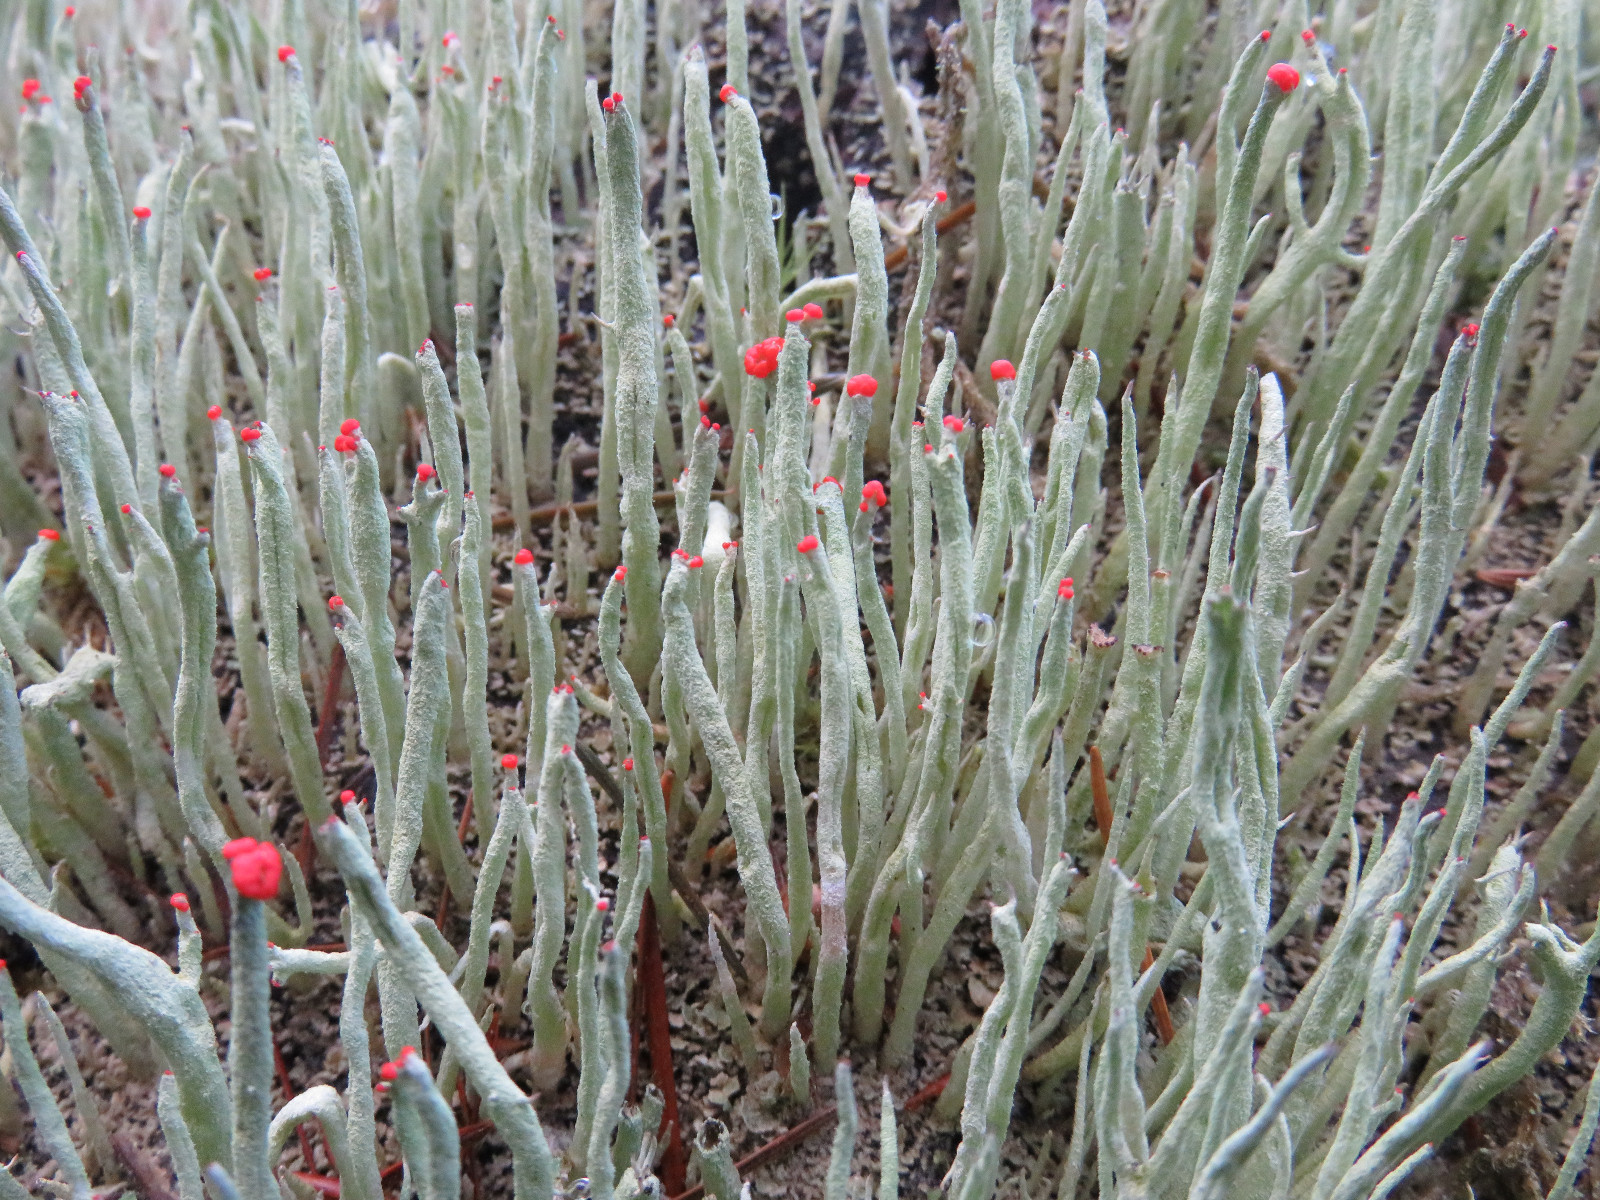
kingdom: Fungi
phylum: Ascomycota
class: Lecanoromycetes
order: Lecanorales
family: Cladoniaceae
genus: Cladonia
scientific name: Cladonia macilenta
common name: indsvunden bægerlav
